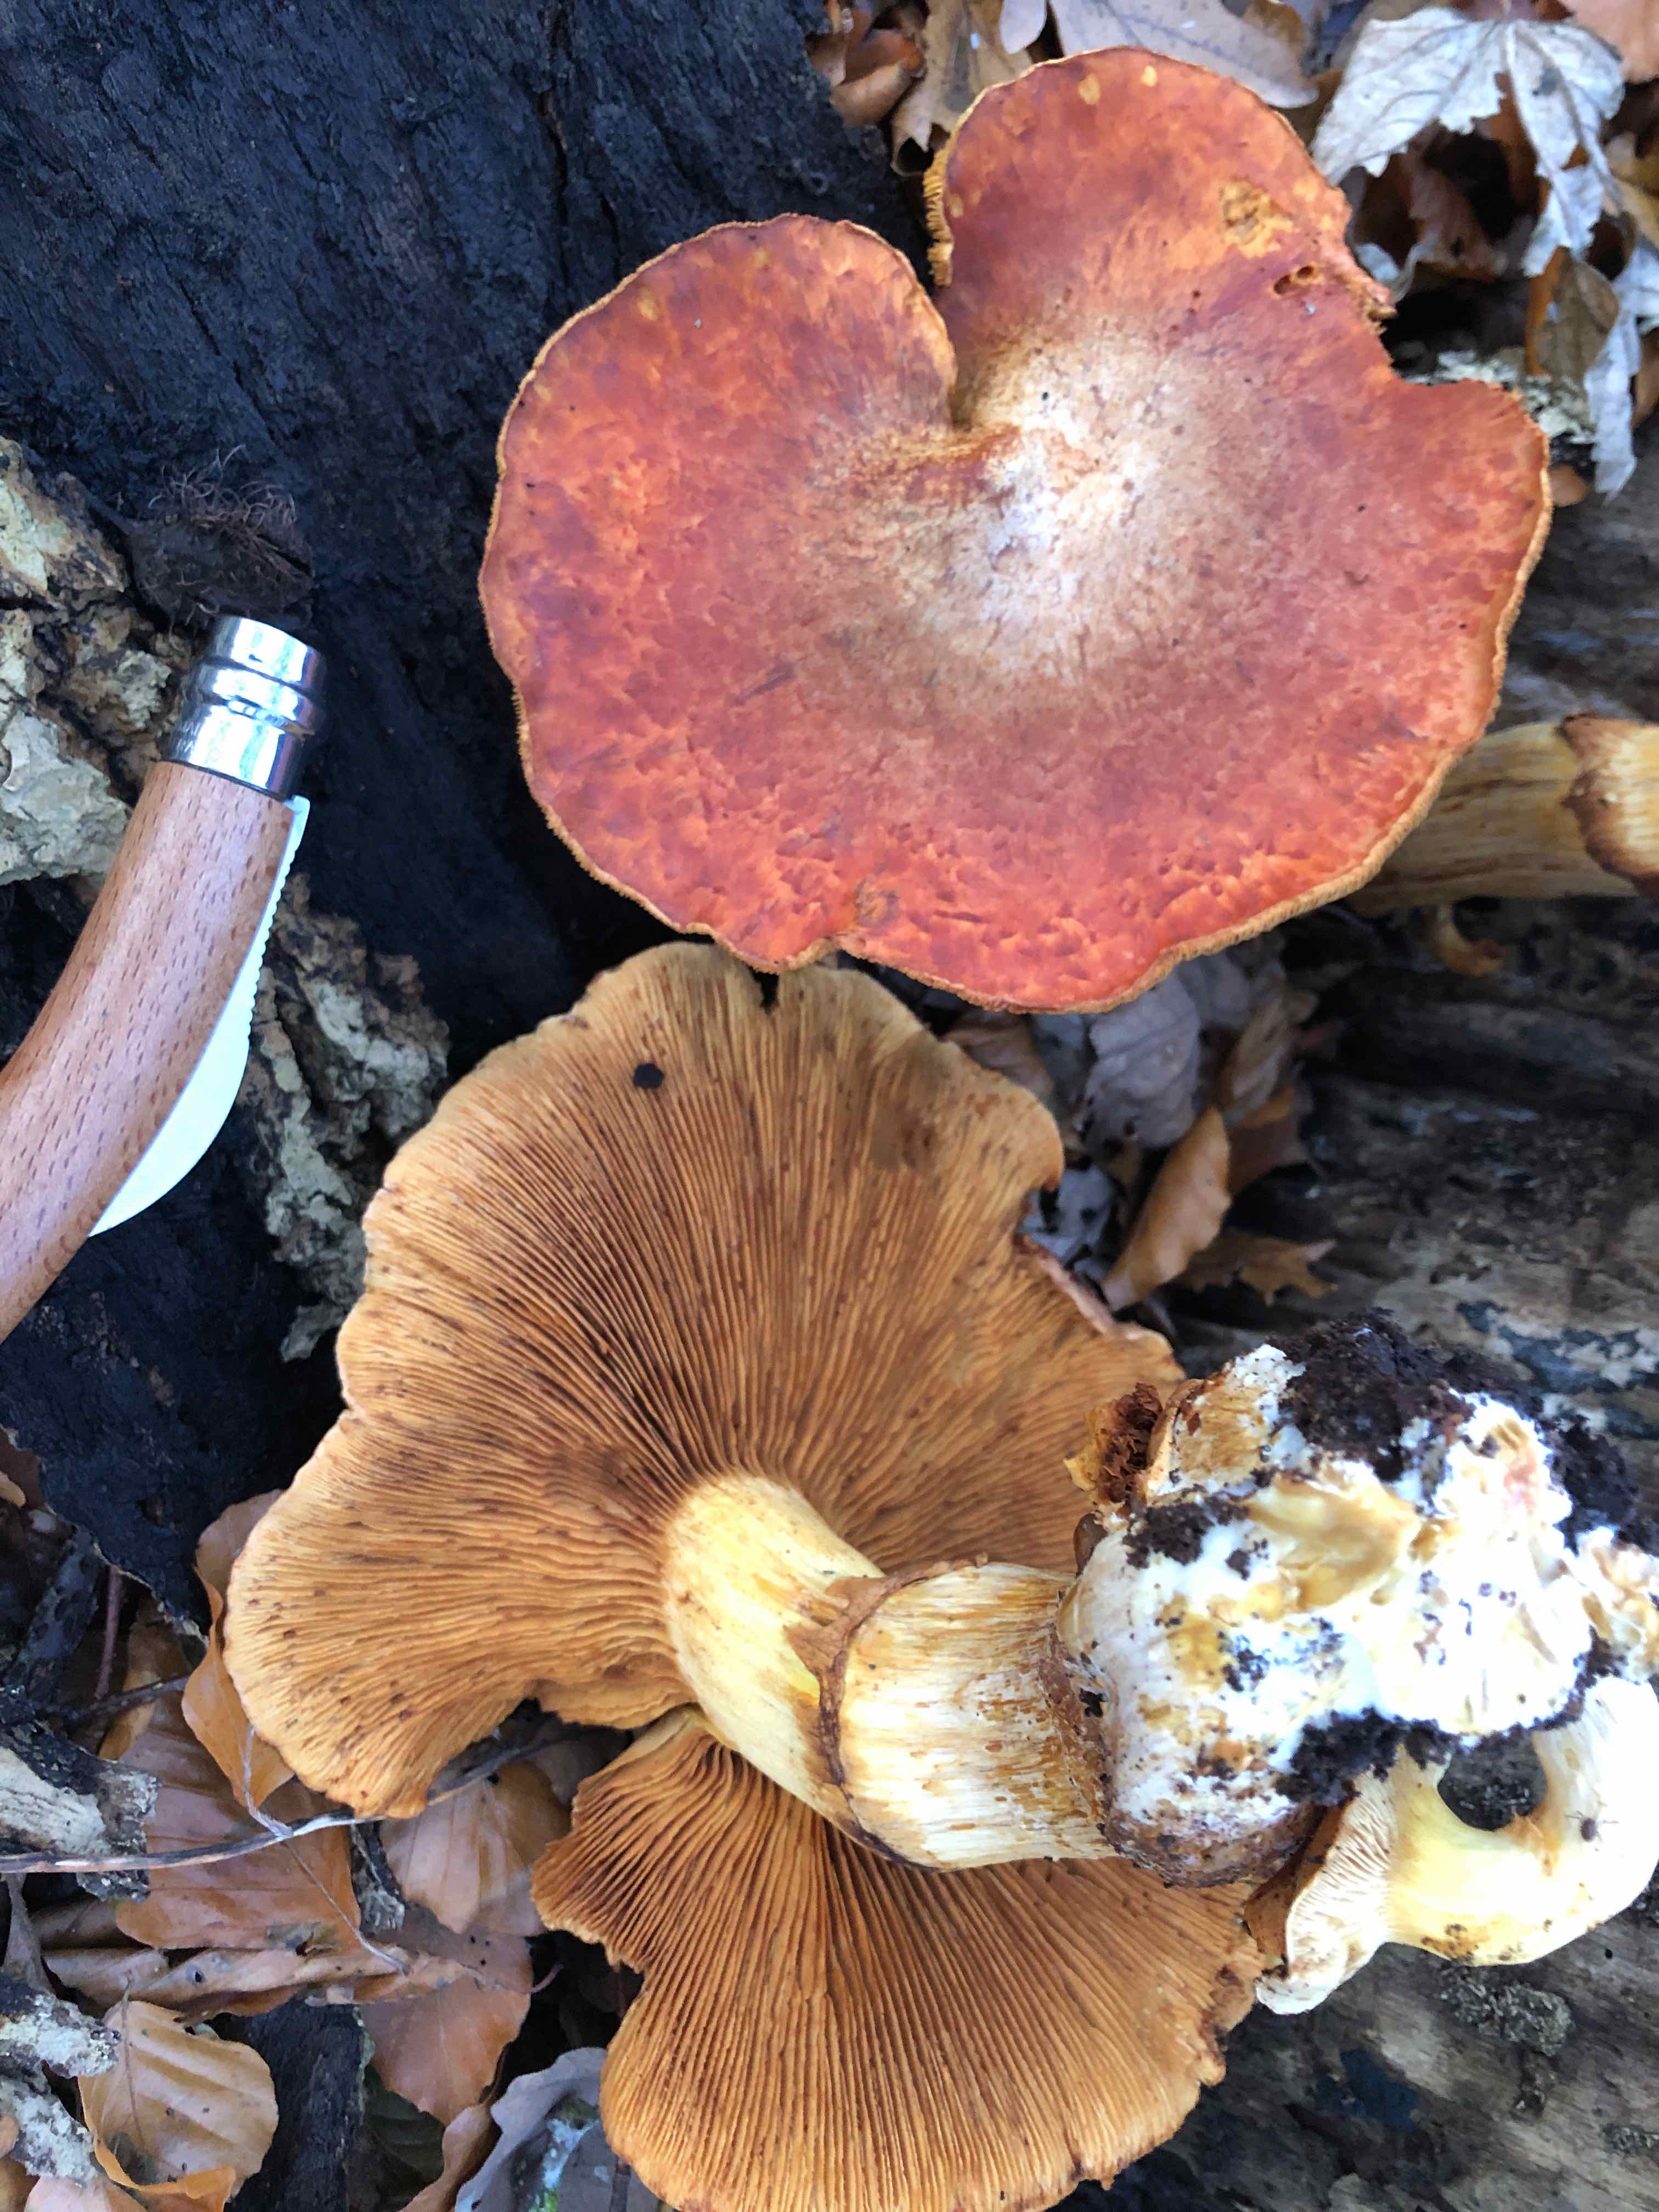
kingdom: Fungi
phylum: Basidiomycota
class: Agaricomycetes
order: Agaricales
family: Hymenogastraceae
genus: Gymnopilus
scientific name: Gymnopilus spectabilis
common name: fibret flammehat
